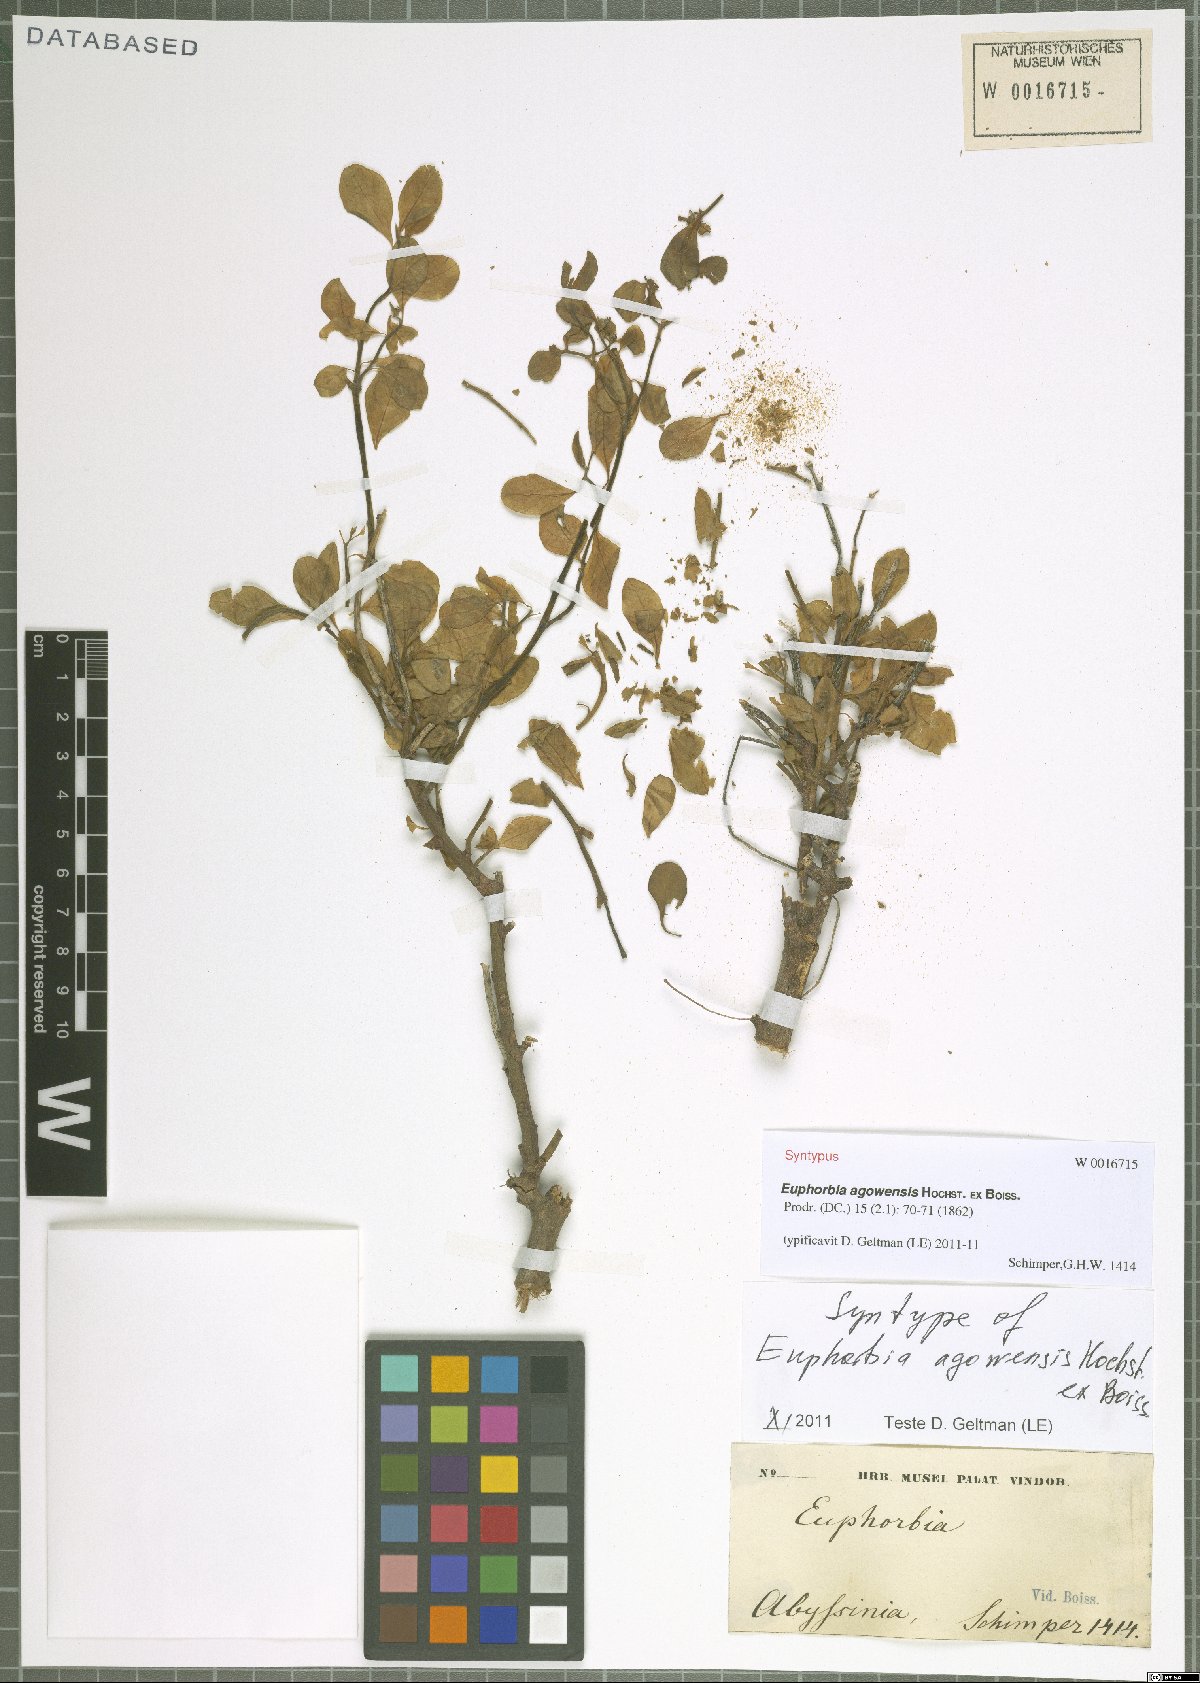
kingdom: Plantae
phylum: Tracheophyta
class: Magnoliopsida
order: Malpighiales
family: Euphorbiaceae
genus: Euphorbia
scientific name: Euphorbia agowensis
